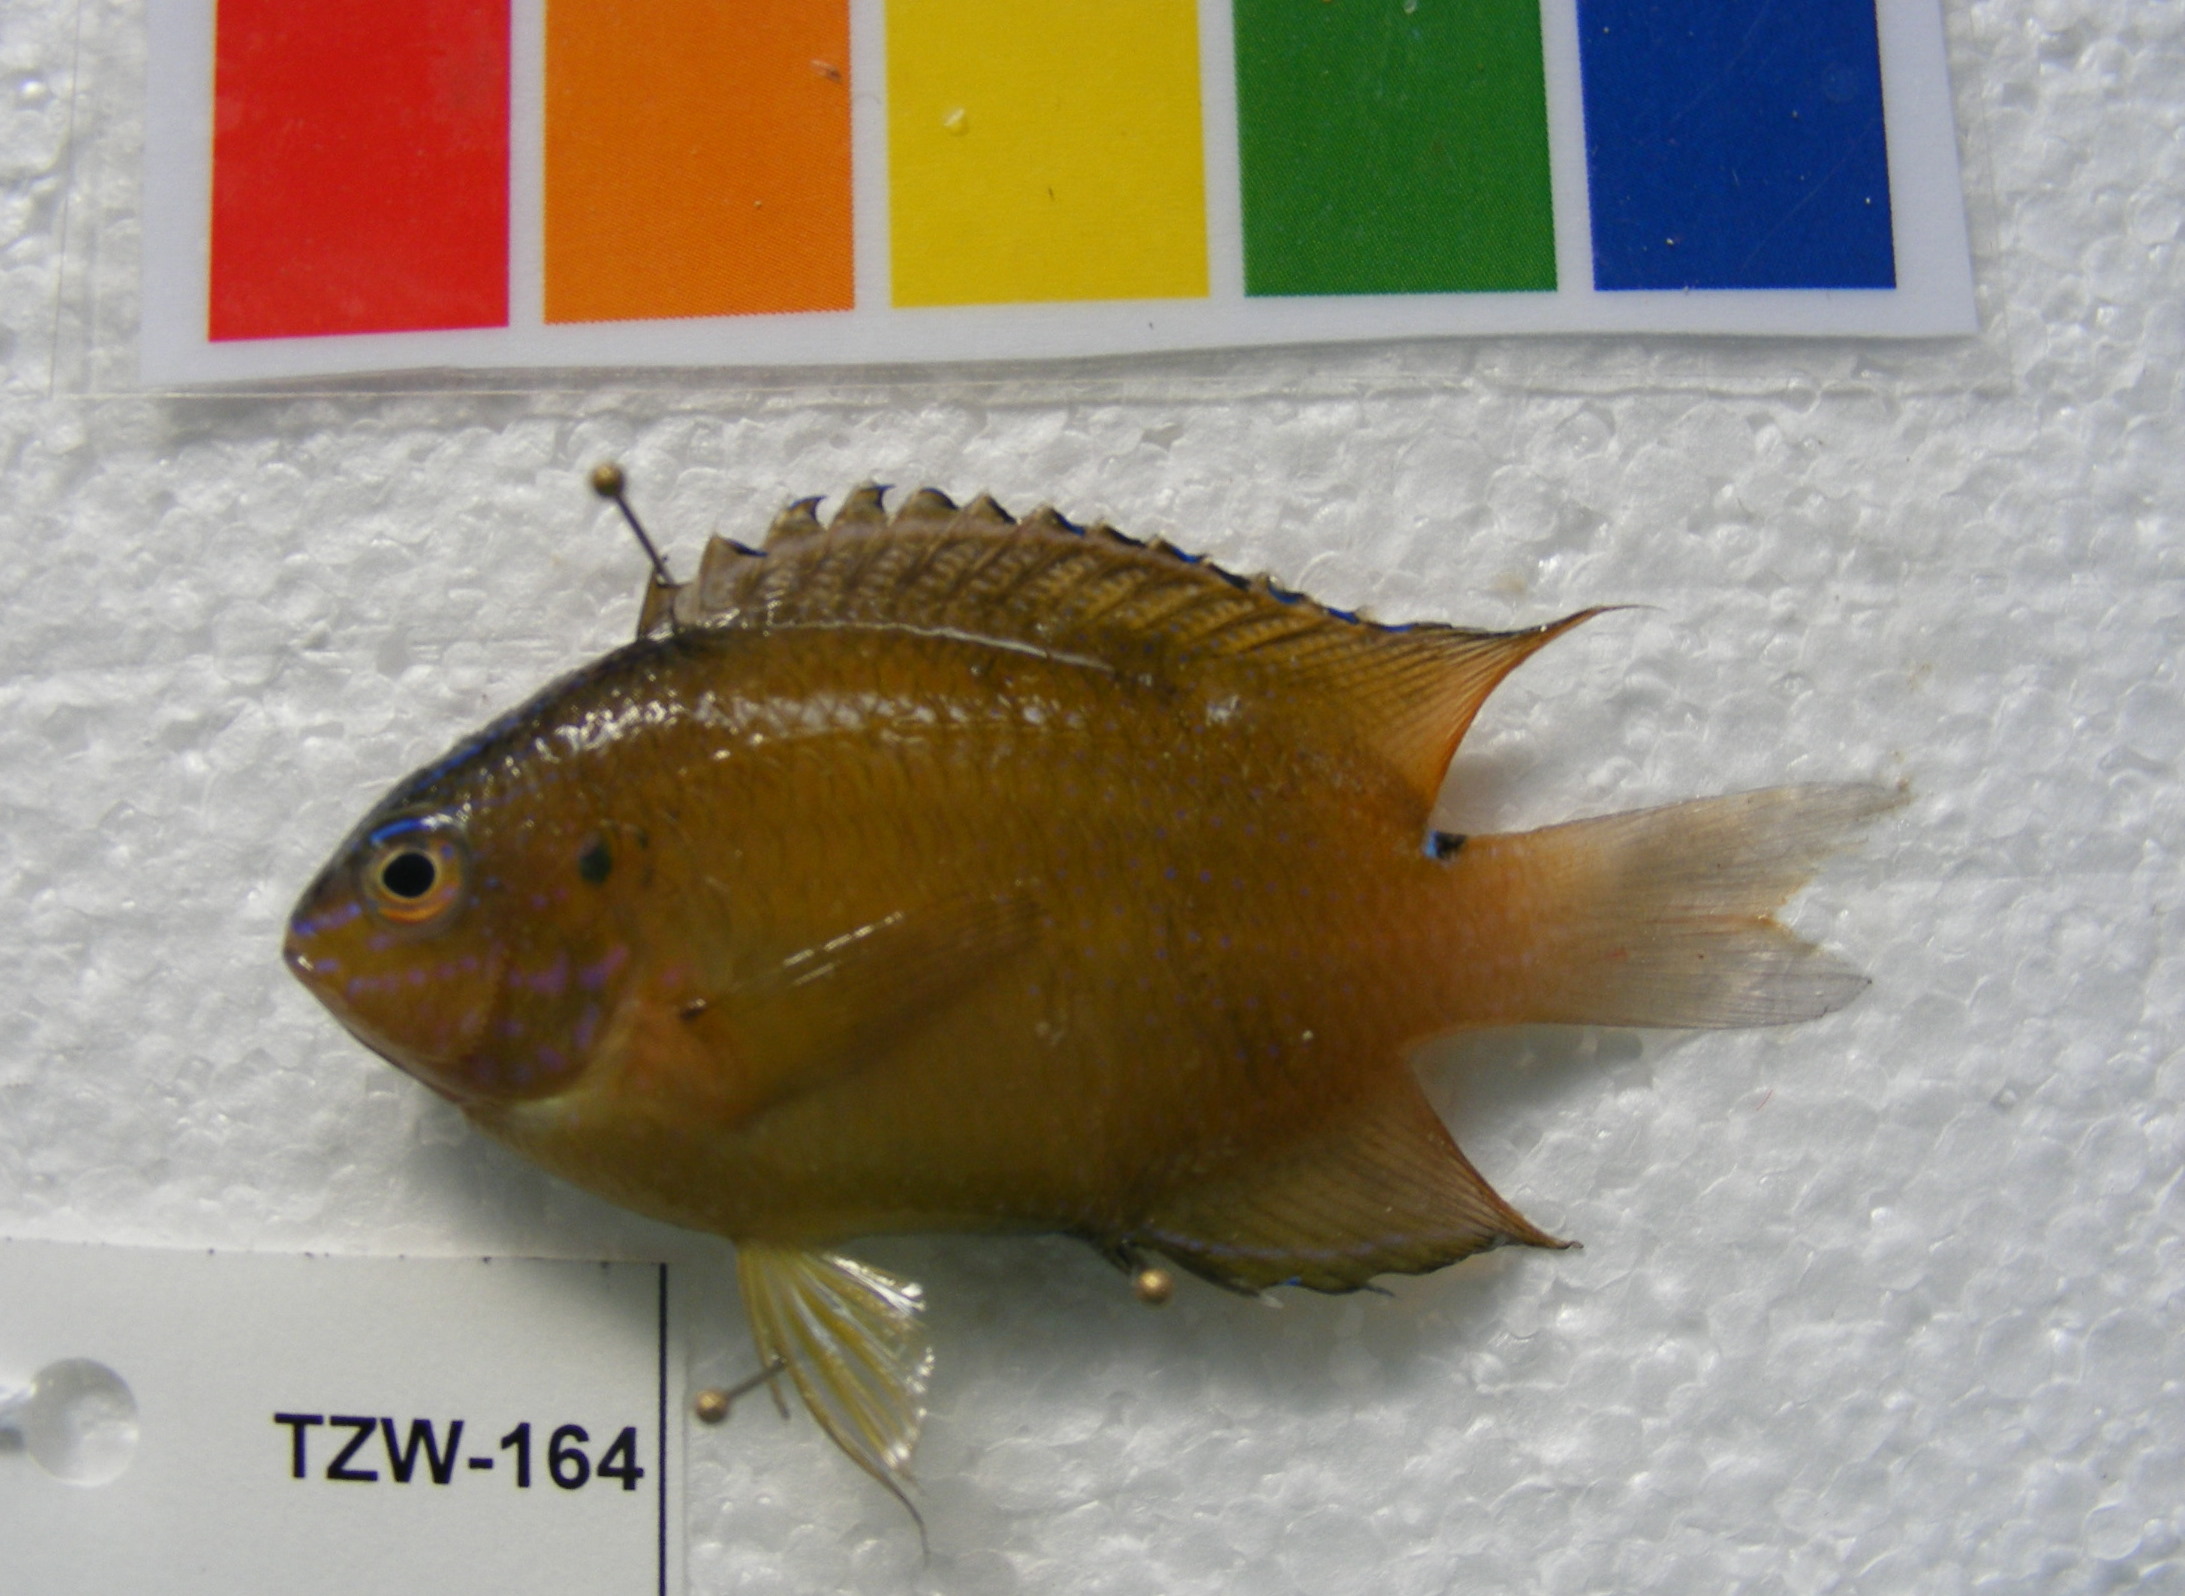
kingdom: Animalia
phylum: Chordata
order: Perciformes
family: Pomacentridae
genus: Pomacentrus
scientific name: Pomacentrus
